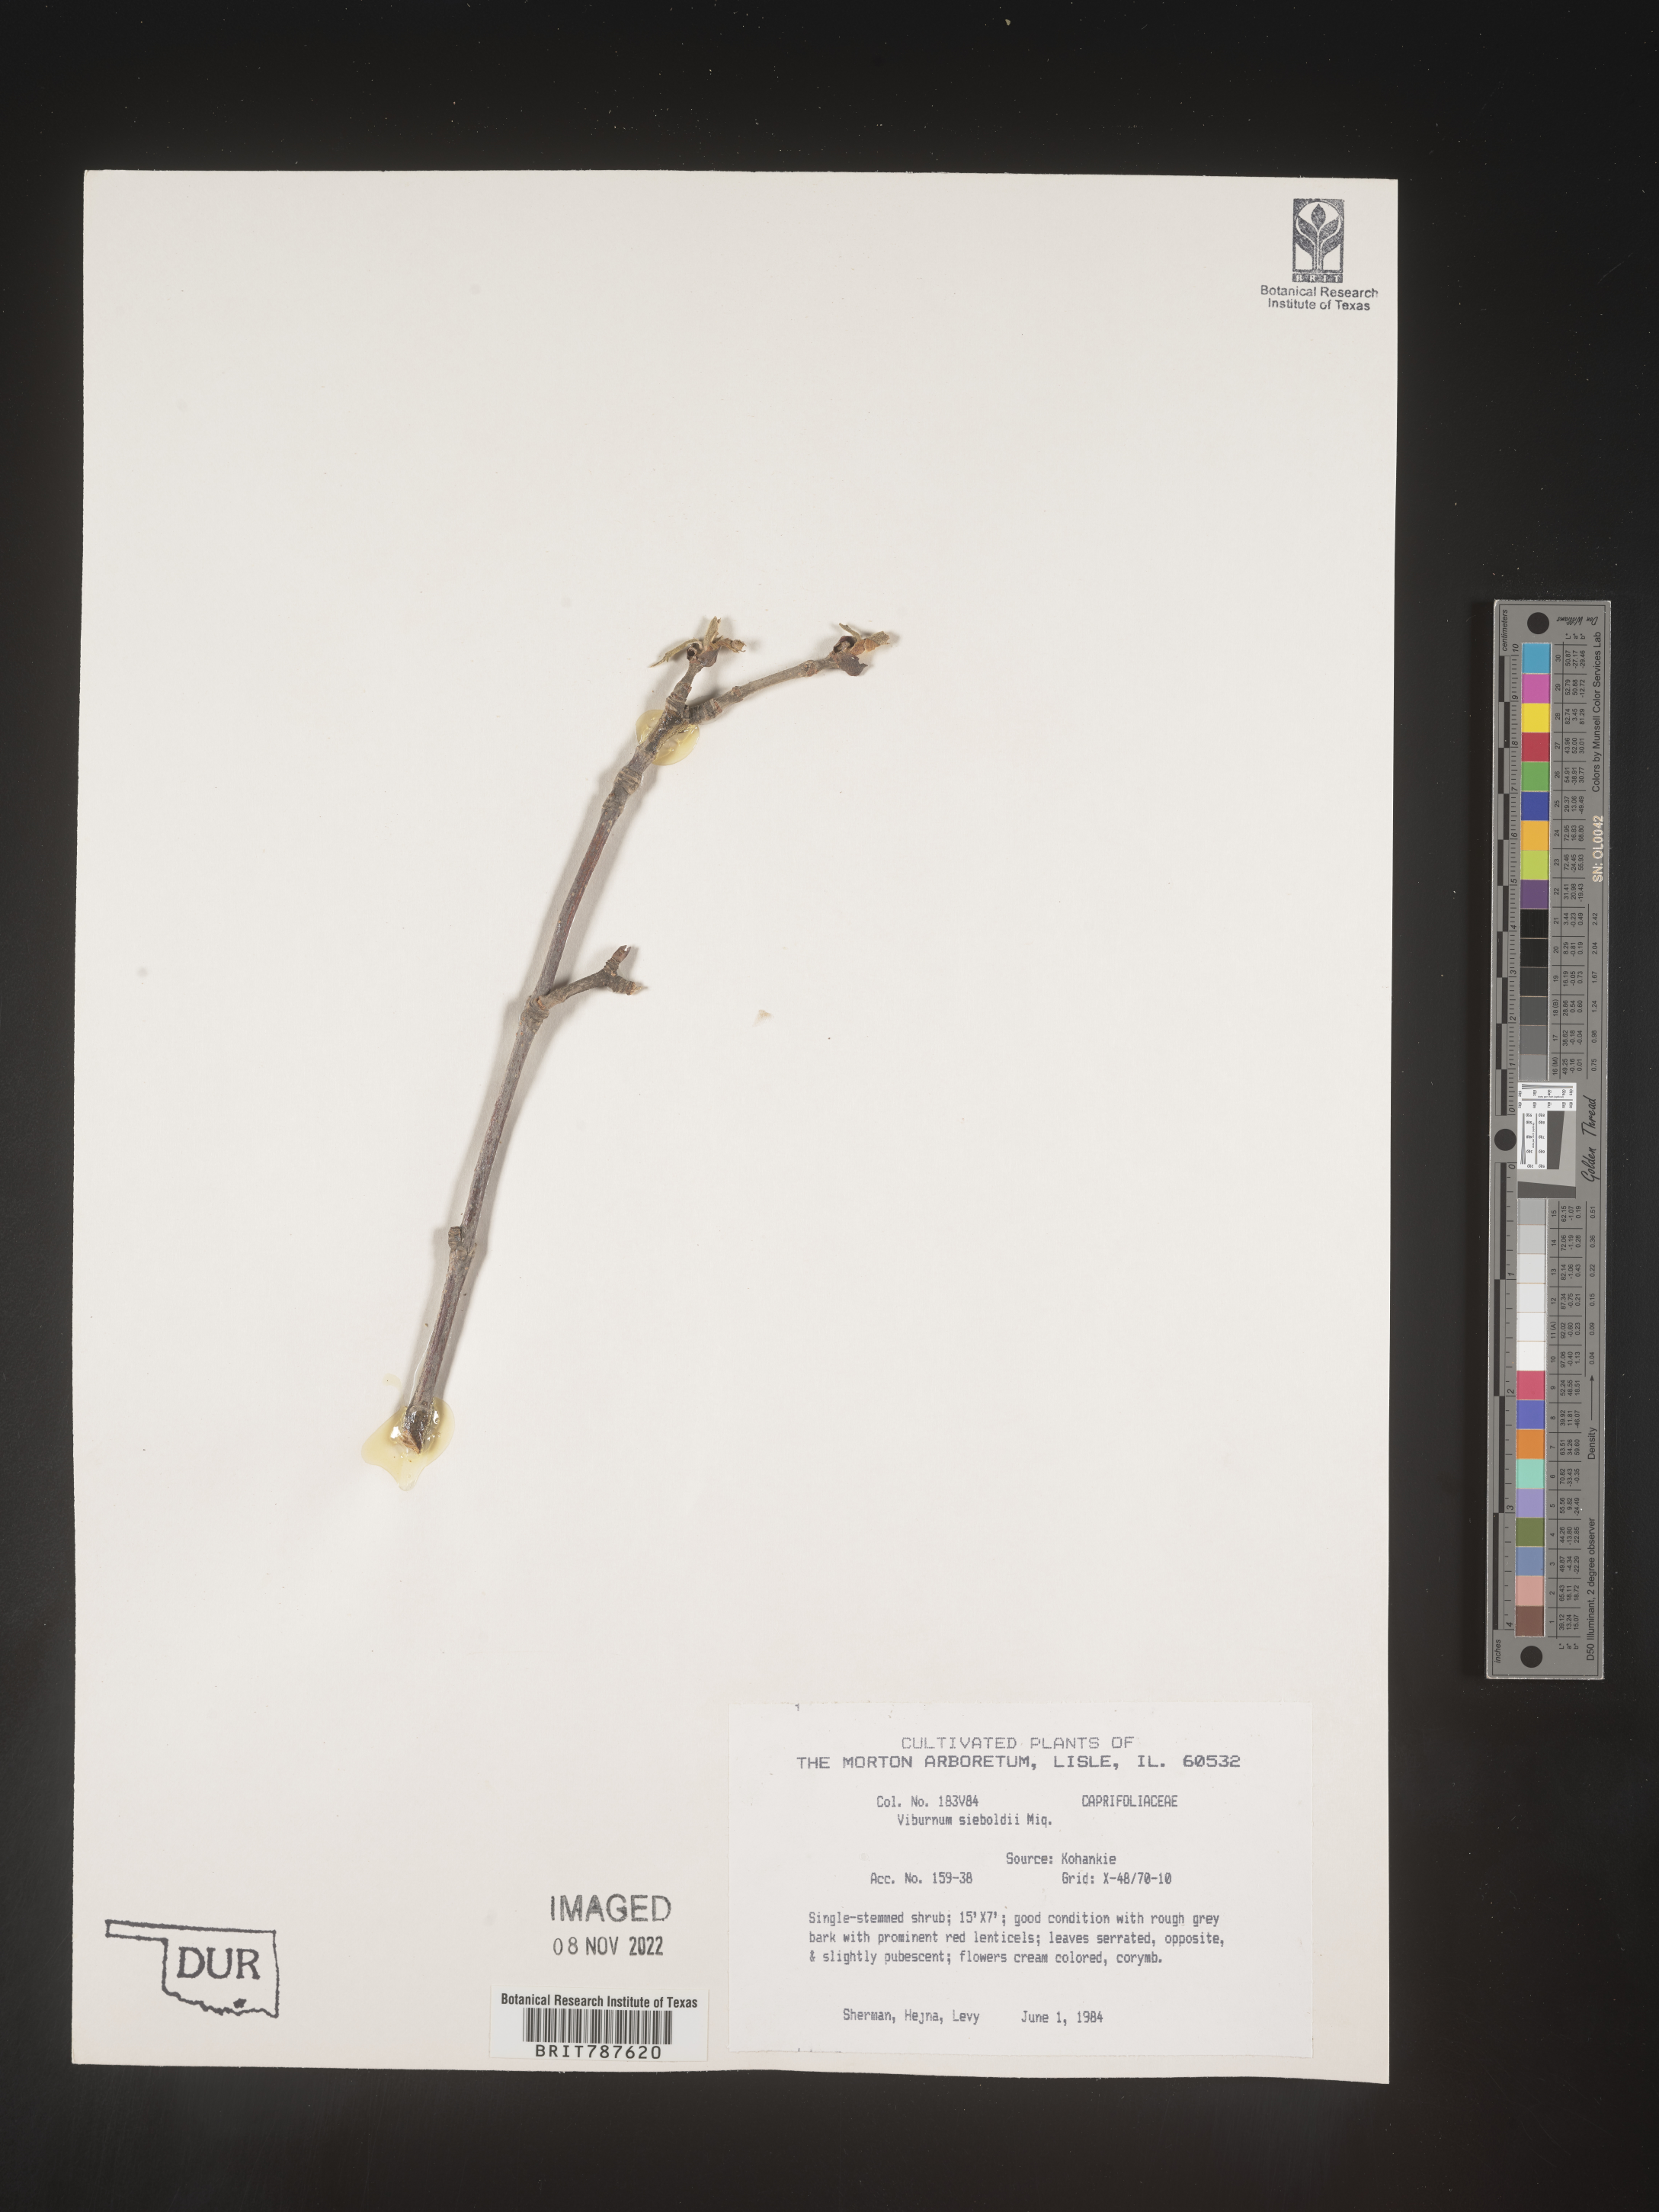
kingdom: Plantae
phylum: Tracheophyta
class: Magnoliopsida
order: Dipsacales
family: Viburnaceae
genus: Viburnum
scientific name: Viburnum
